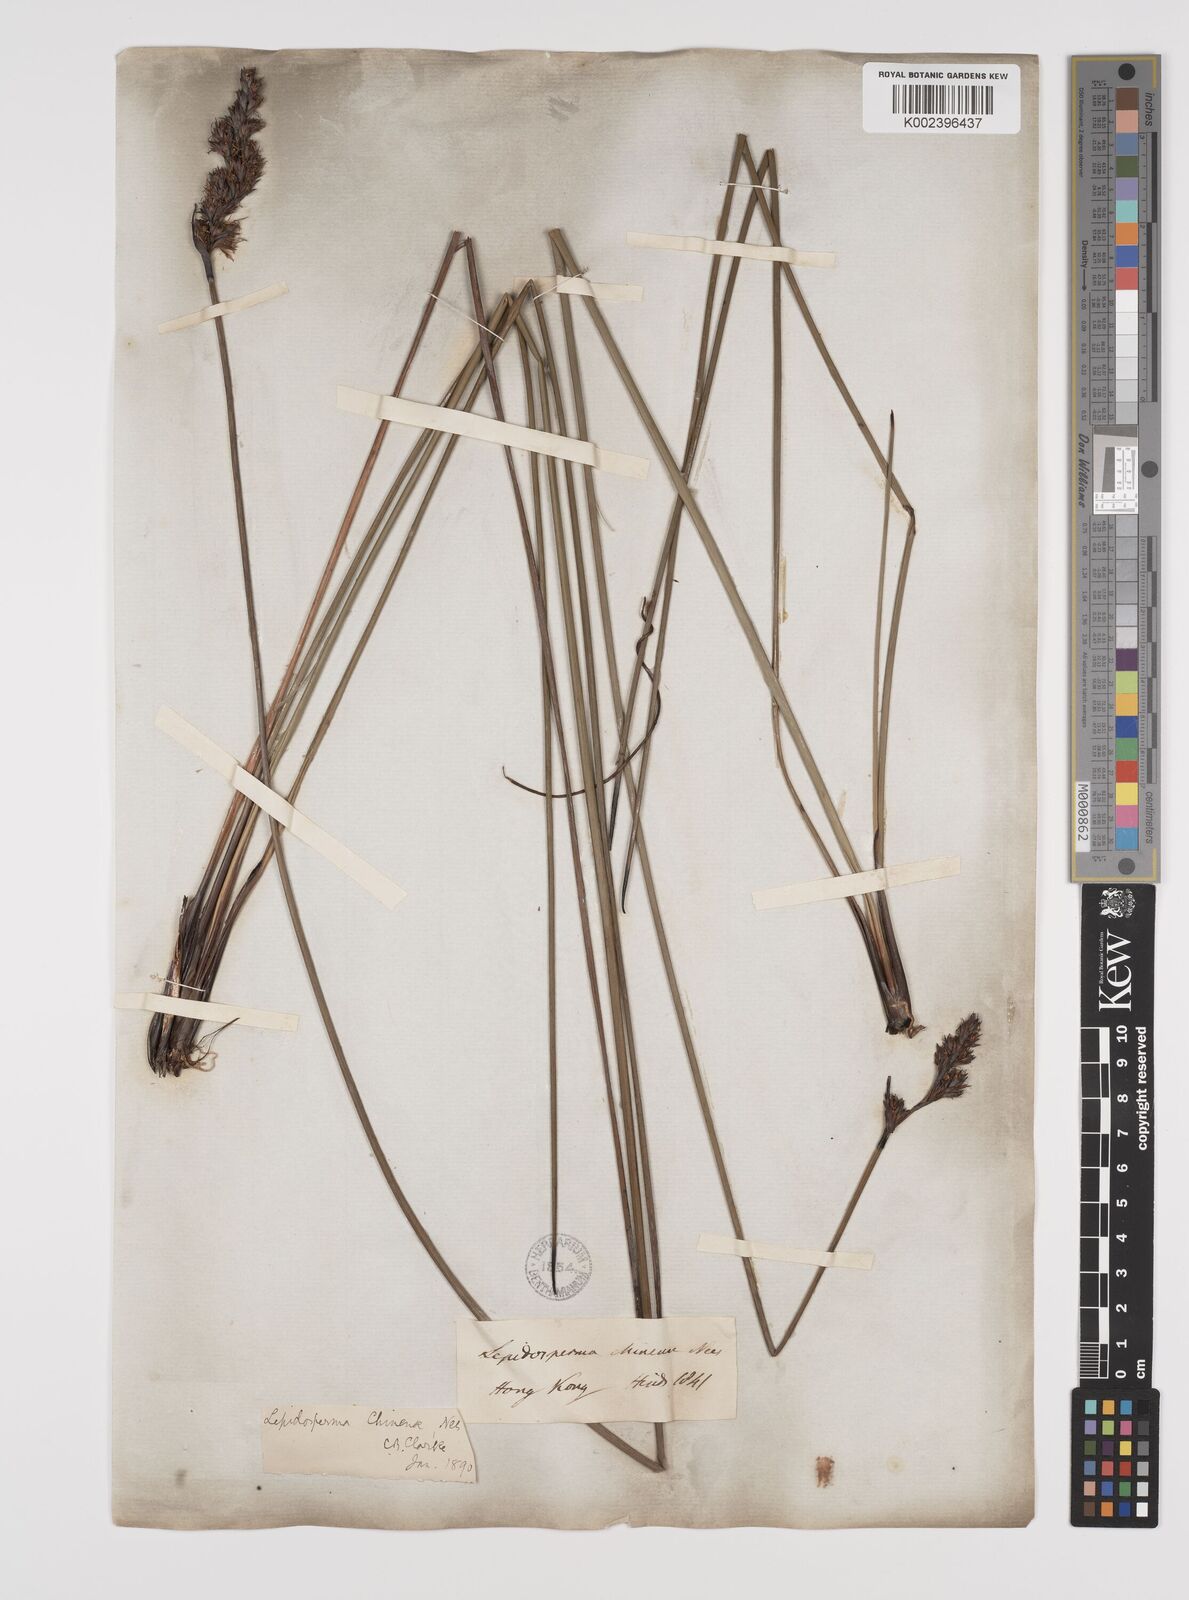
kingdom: Plantae
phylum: Tracheophyta
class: Liliopsida
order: Poales
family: Cyperaceae
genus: Lepidosperma
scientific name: Lepidosperma chinense
